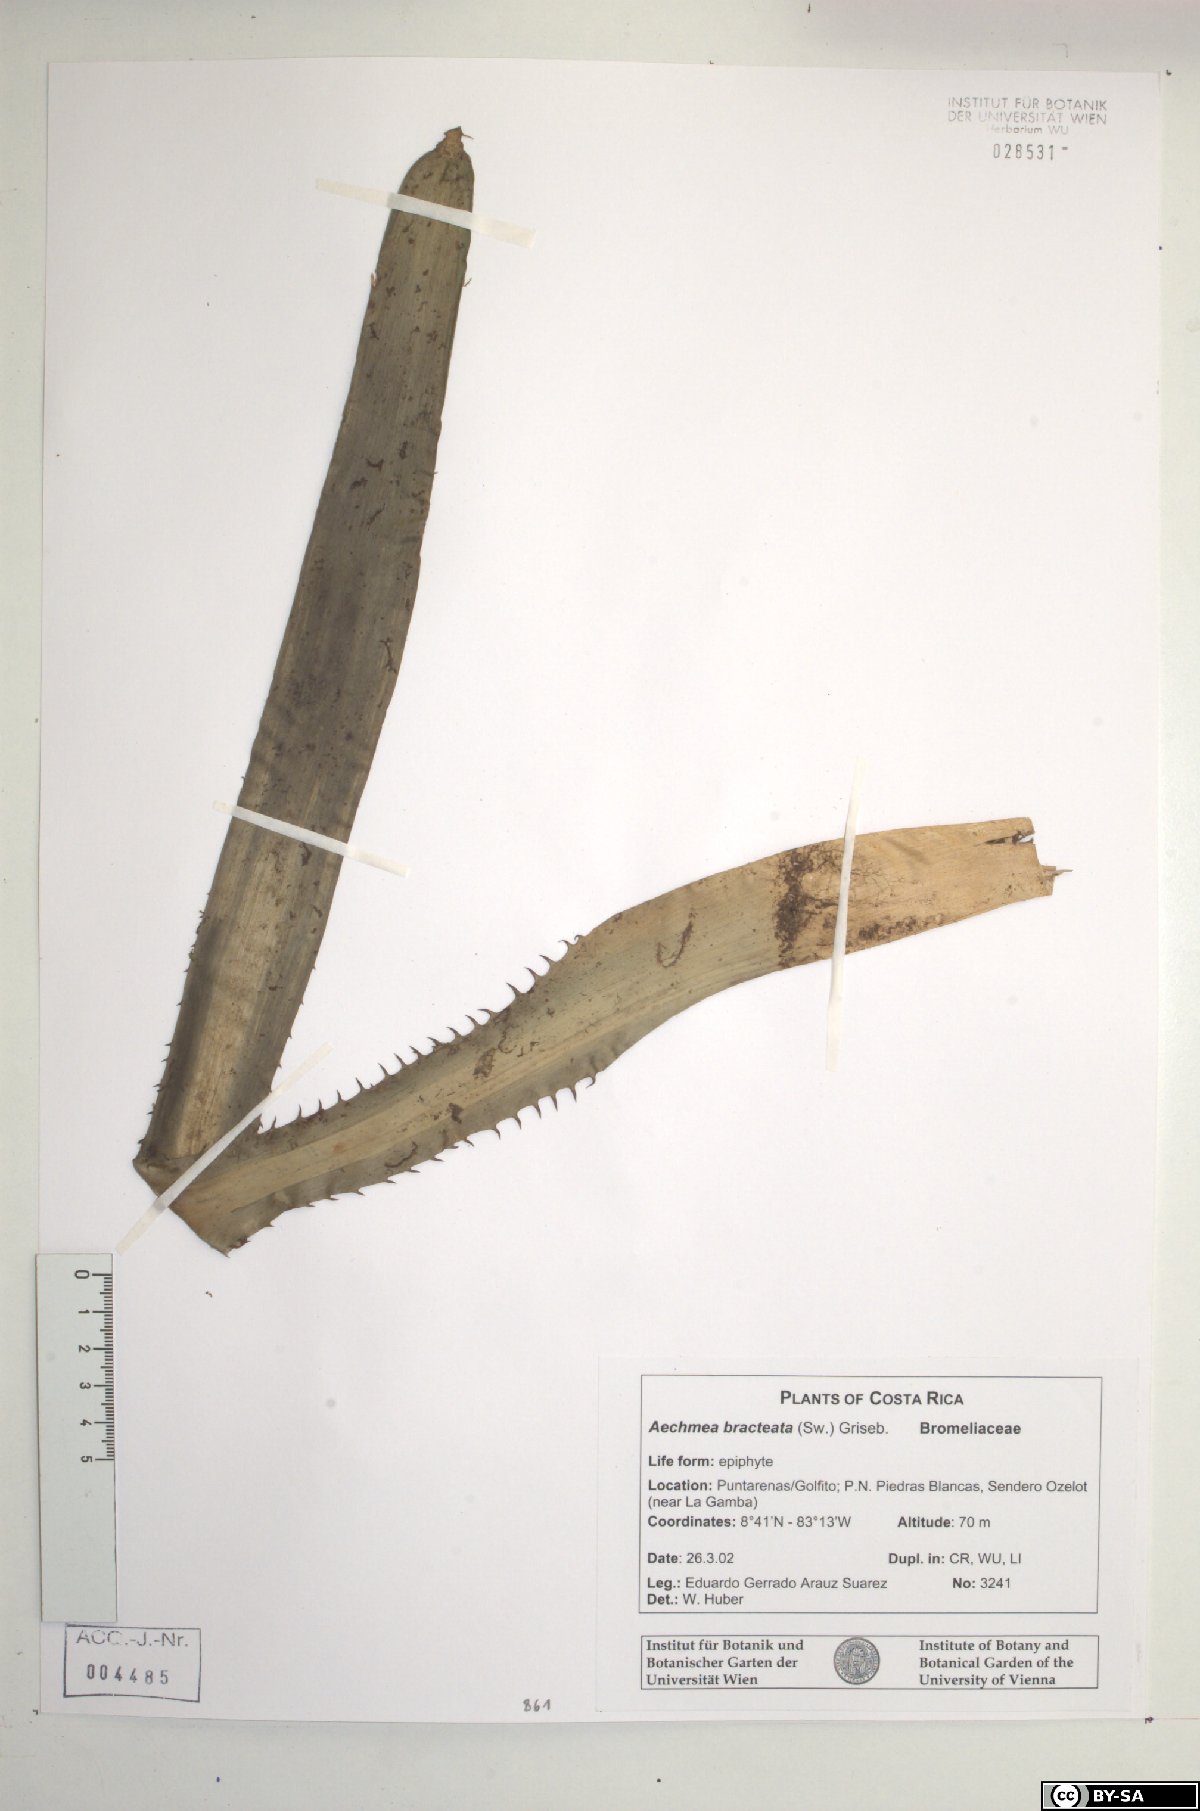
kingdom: Plantae
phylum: Tracheophyta
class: Liliopsida
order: Poales
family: Bromeliaceae
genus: Aechmea
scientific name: Aechmea bracteata
